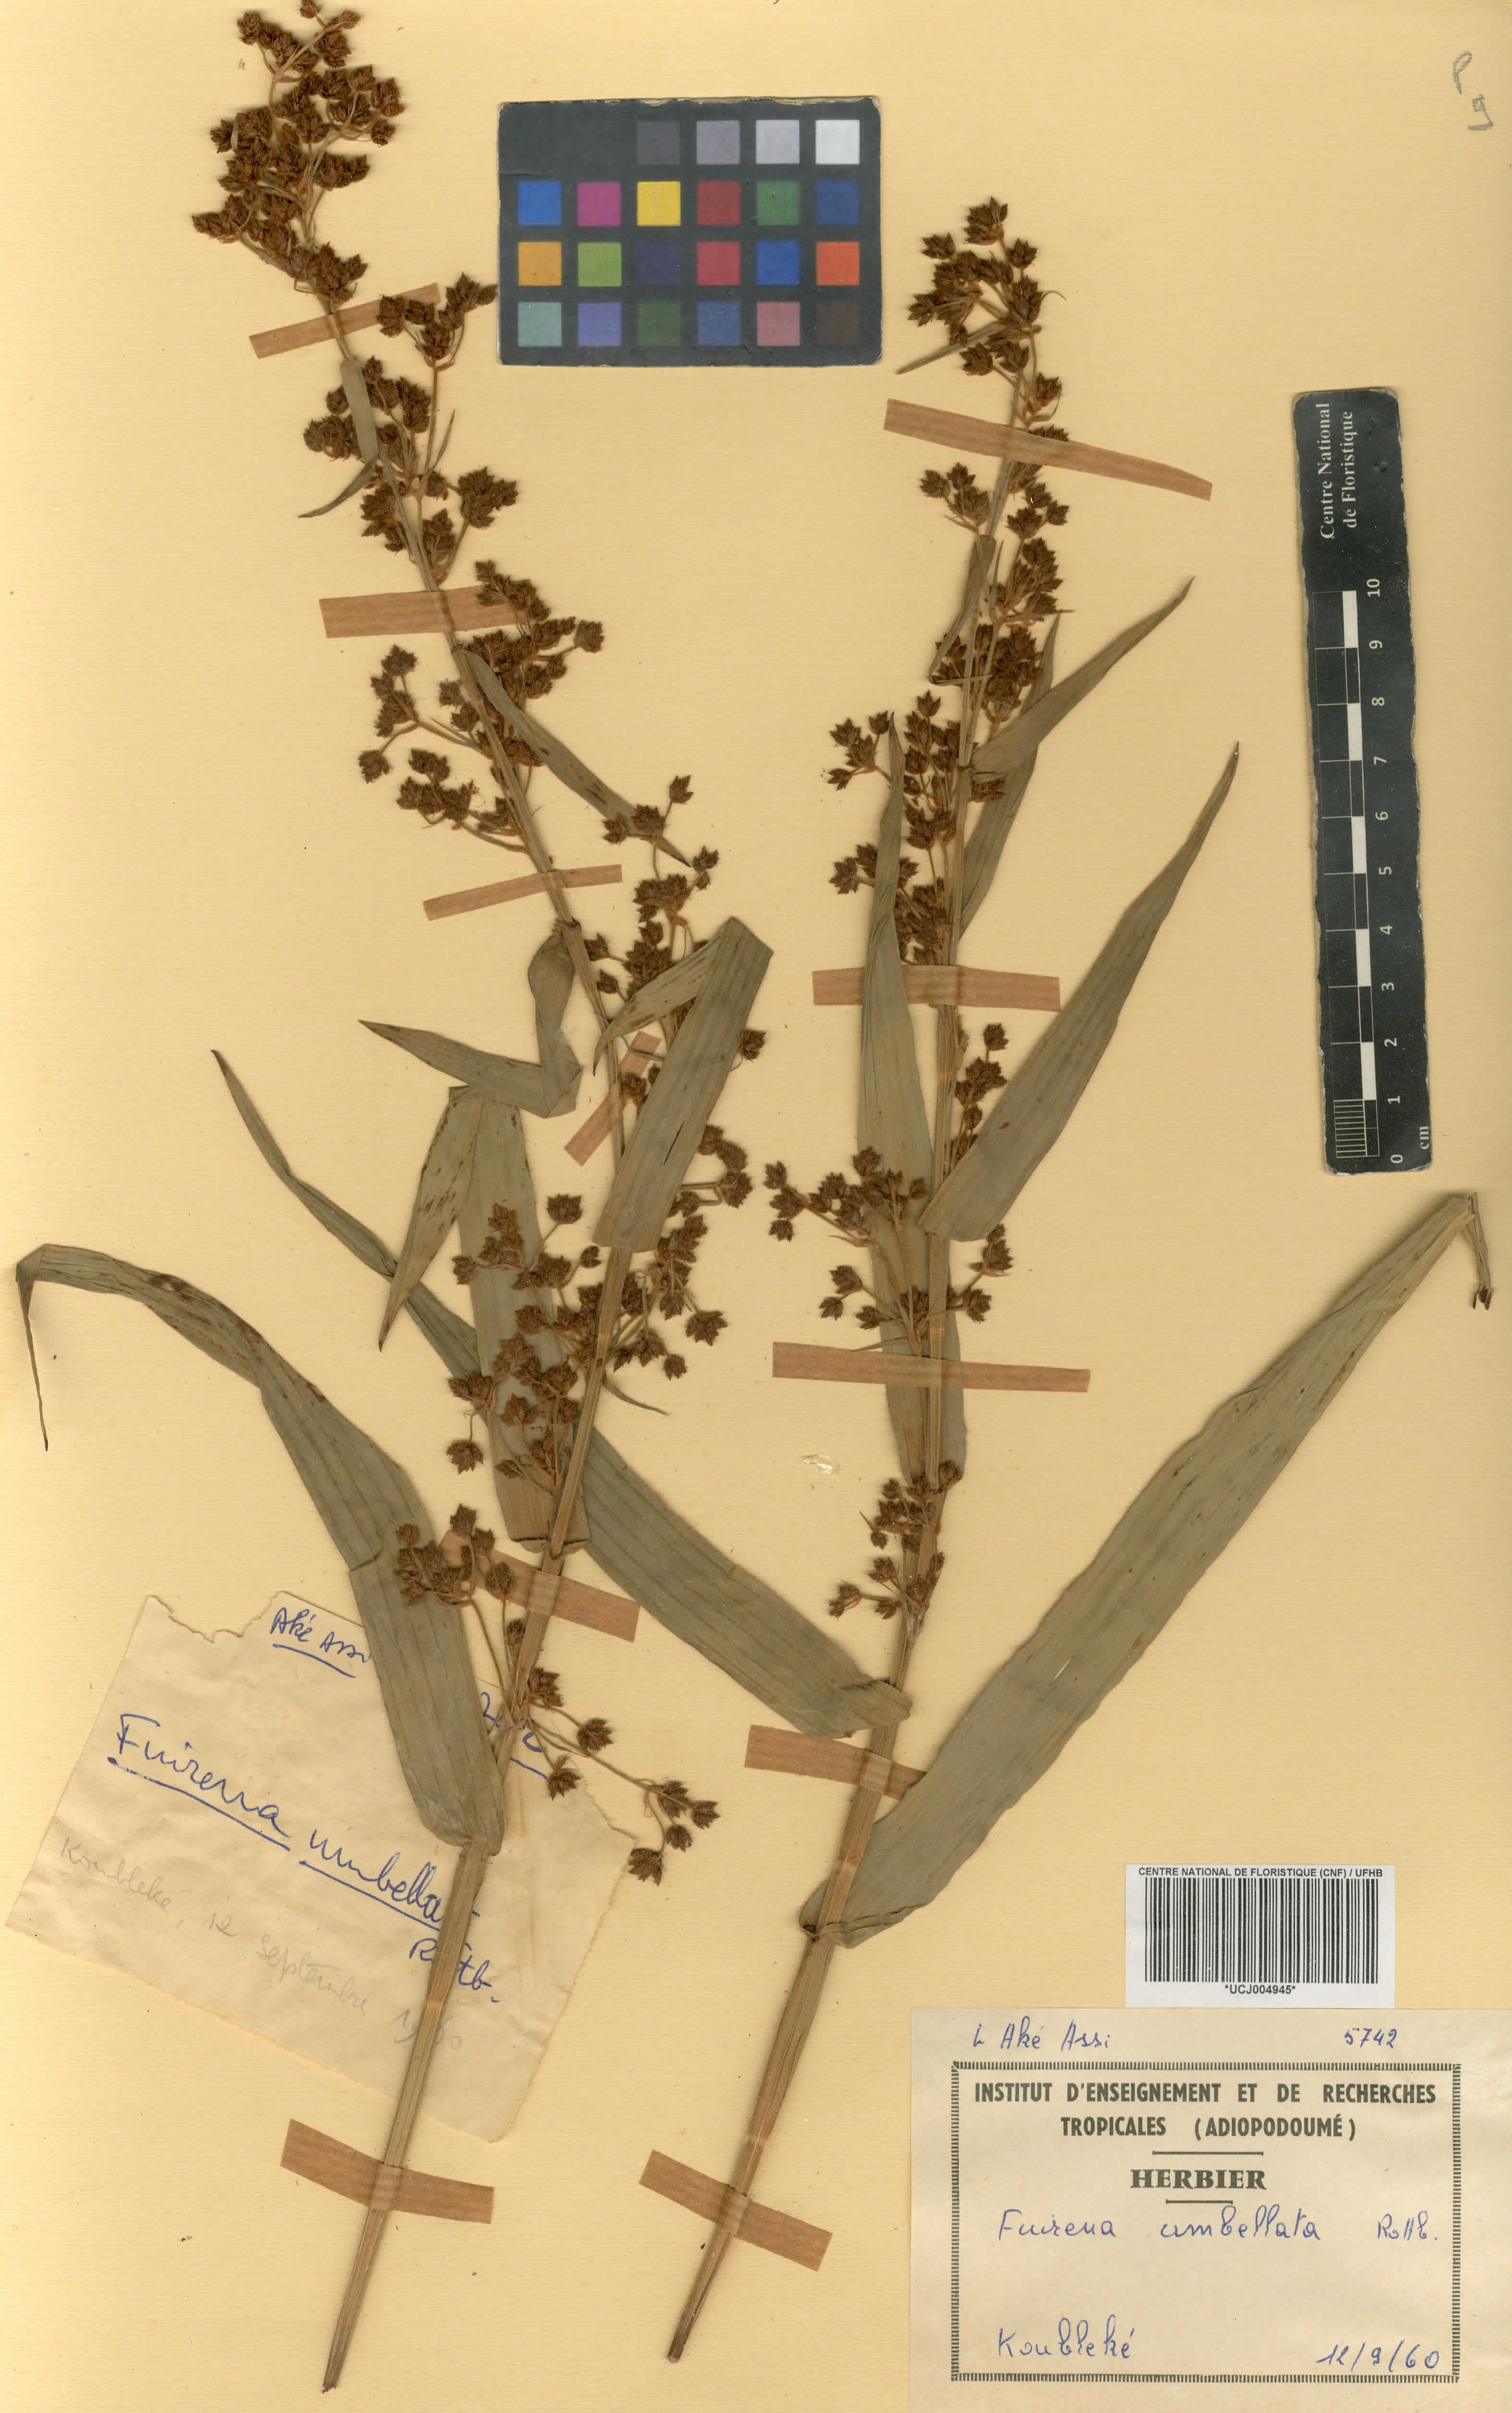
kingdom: Plantae
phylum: Tracheophyta
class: Liliopsida
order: Poales
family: Cyperaceae
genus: Fuirena
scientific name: Fuirena umbellata
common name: Yefen
